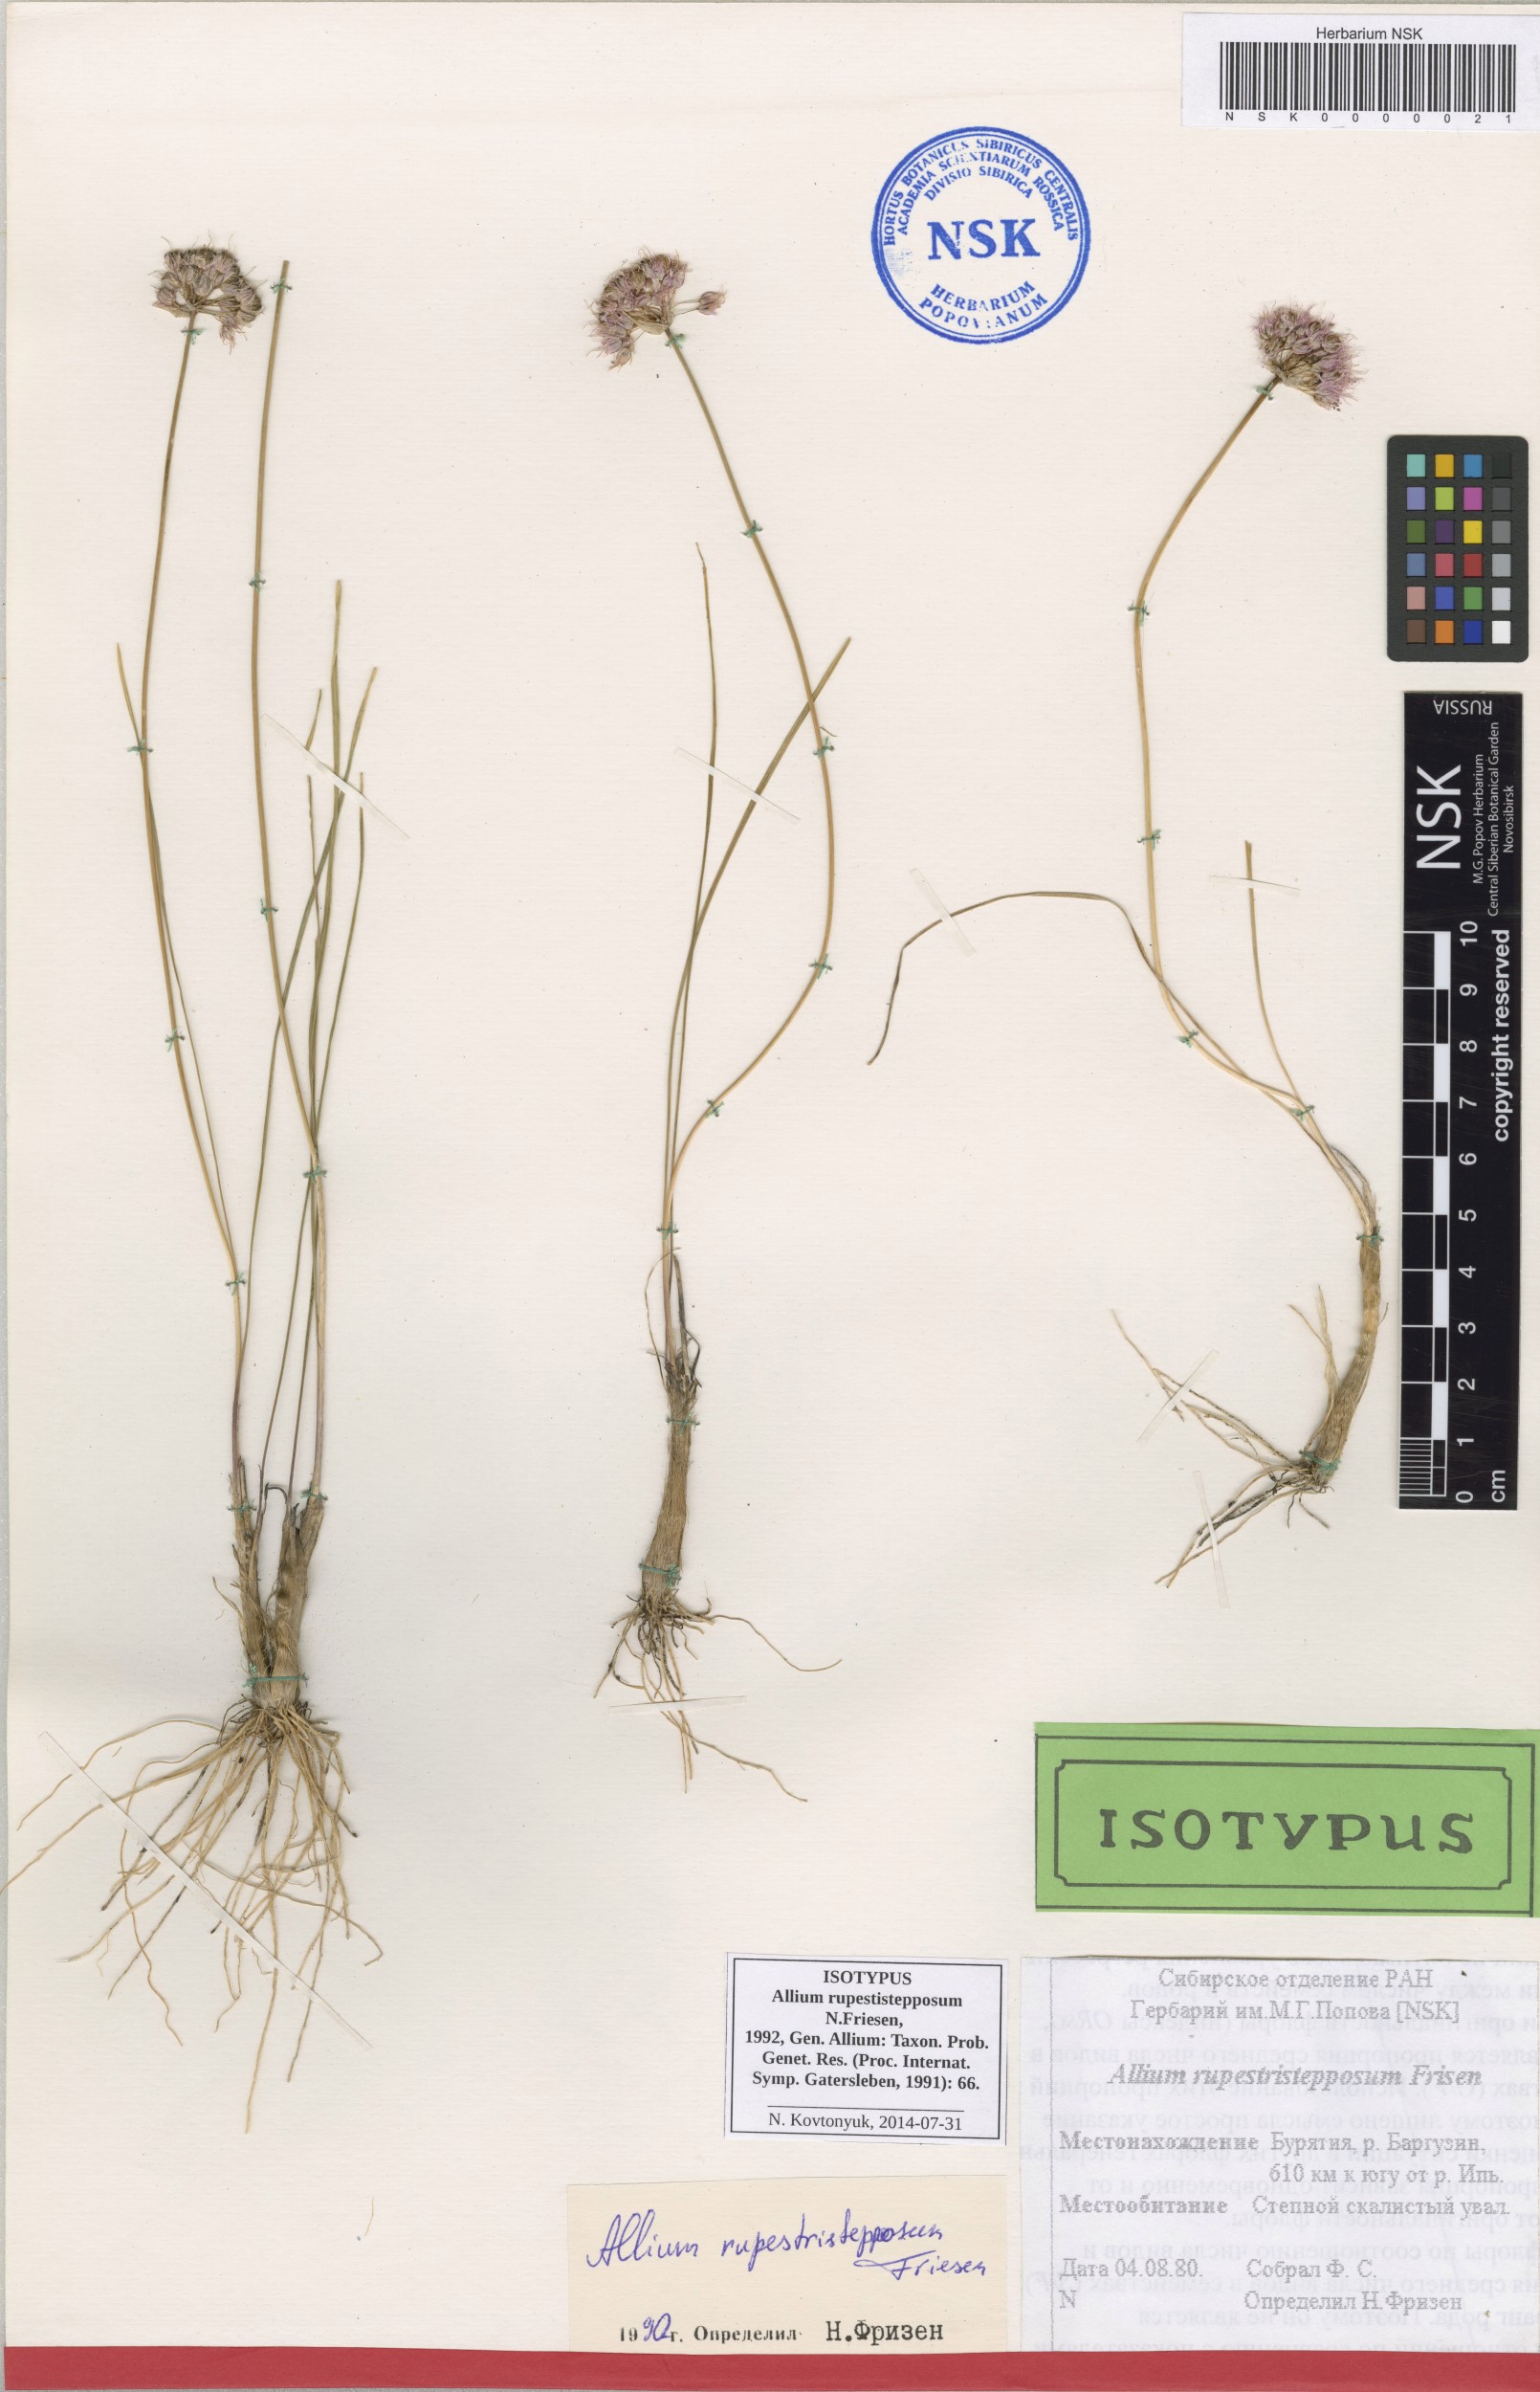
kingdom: Plantae
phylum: Tracheophyta
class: Liliopsida
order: Asparagales
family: Amaryllidaceae
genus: Allium
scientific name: Allium rupestristepposum
